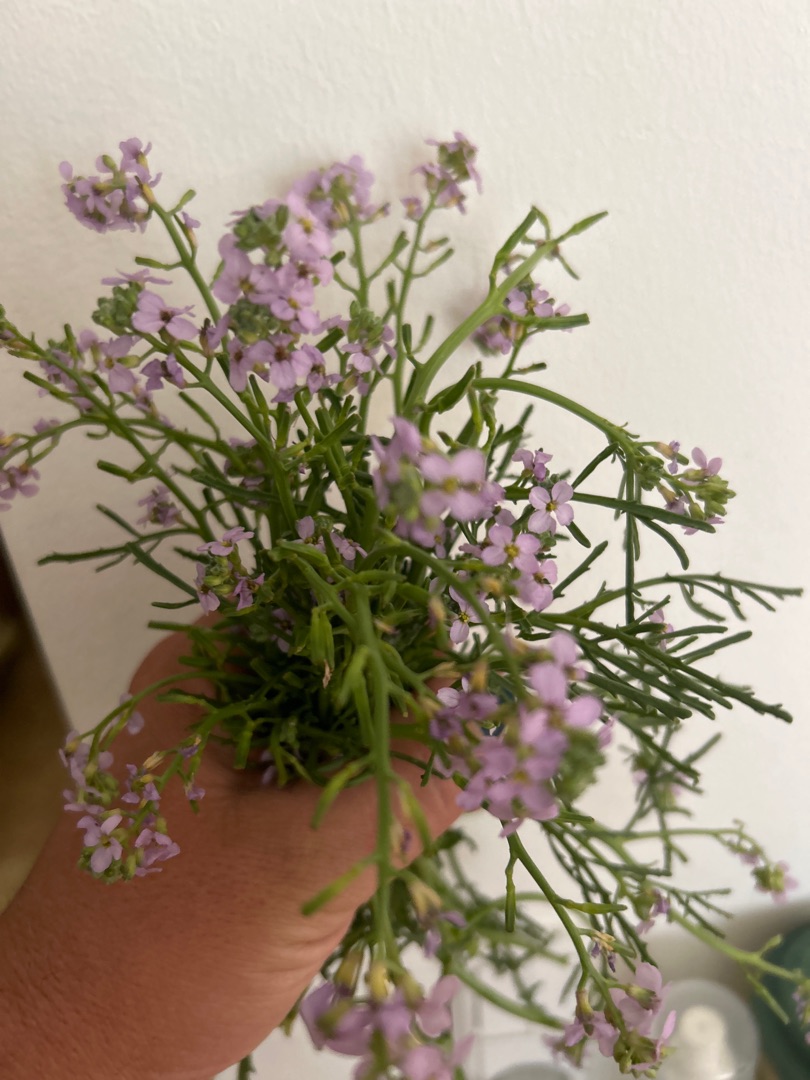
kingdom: Plantae
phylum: Tracheophyta
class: Magnoliopsida
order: Brassicales
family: Brassicaceae
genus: Cakile
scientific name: Cakile maritima
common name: Strandsennep
